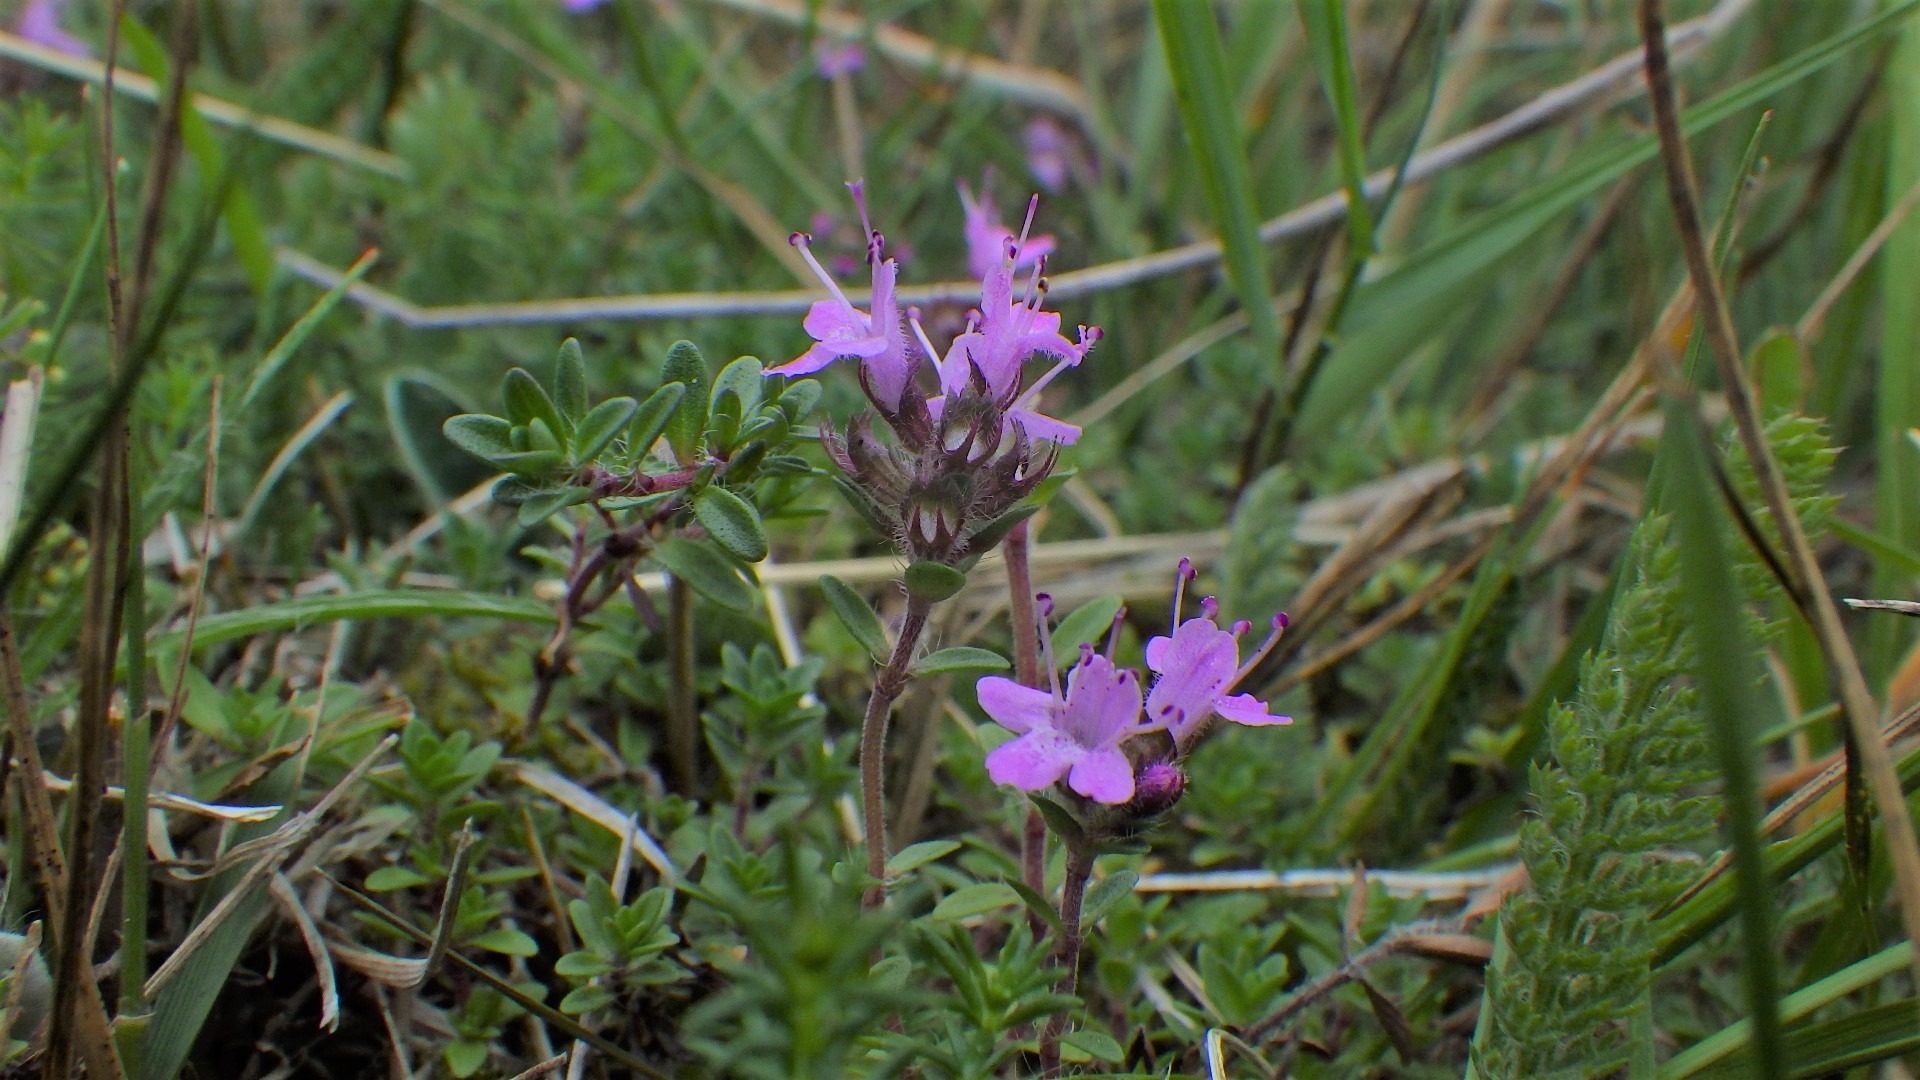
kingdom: Plantae
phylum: Tracheophyta
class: Magnoliopsida
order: Lamiales
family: Lamiaceae
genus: Thymus
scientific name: Thymus serpyllum
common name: Smalbladet timian
